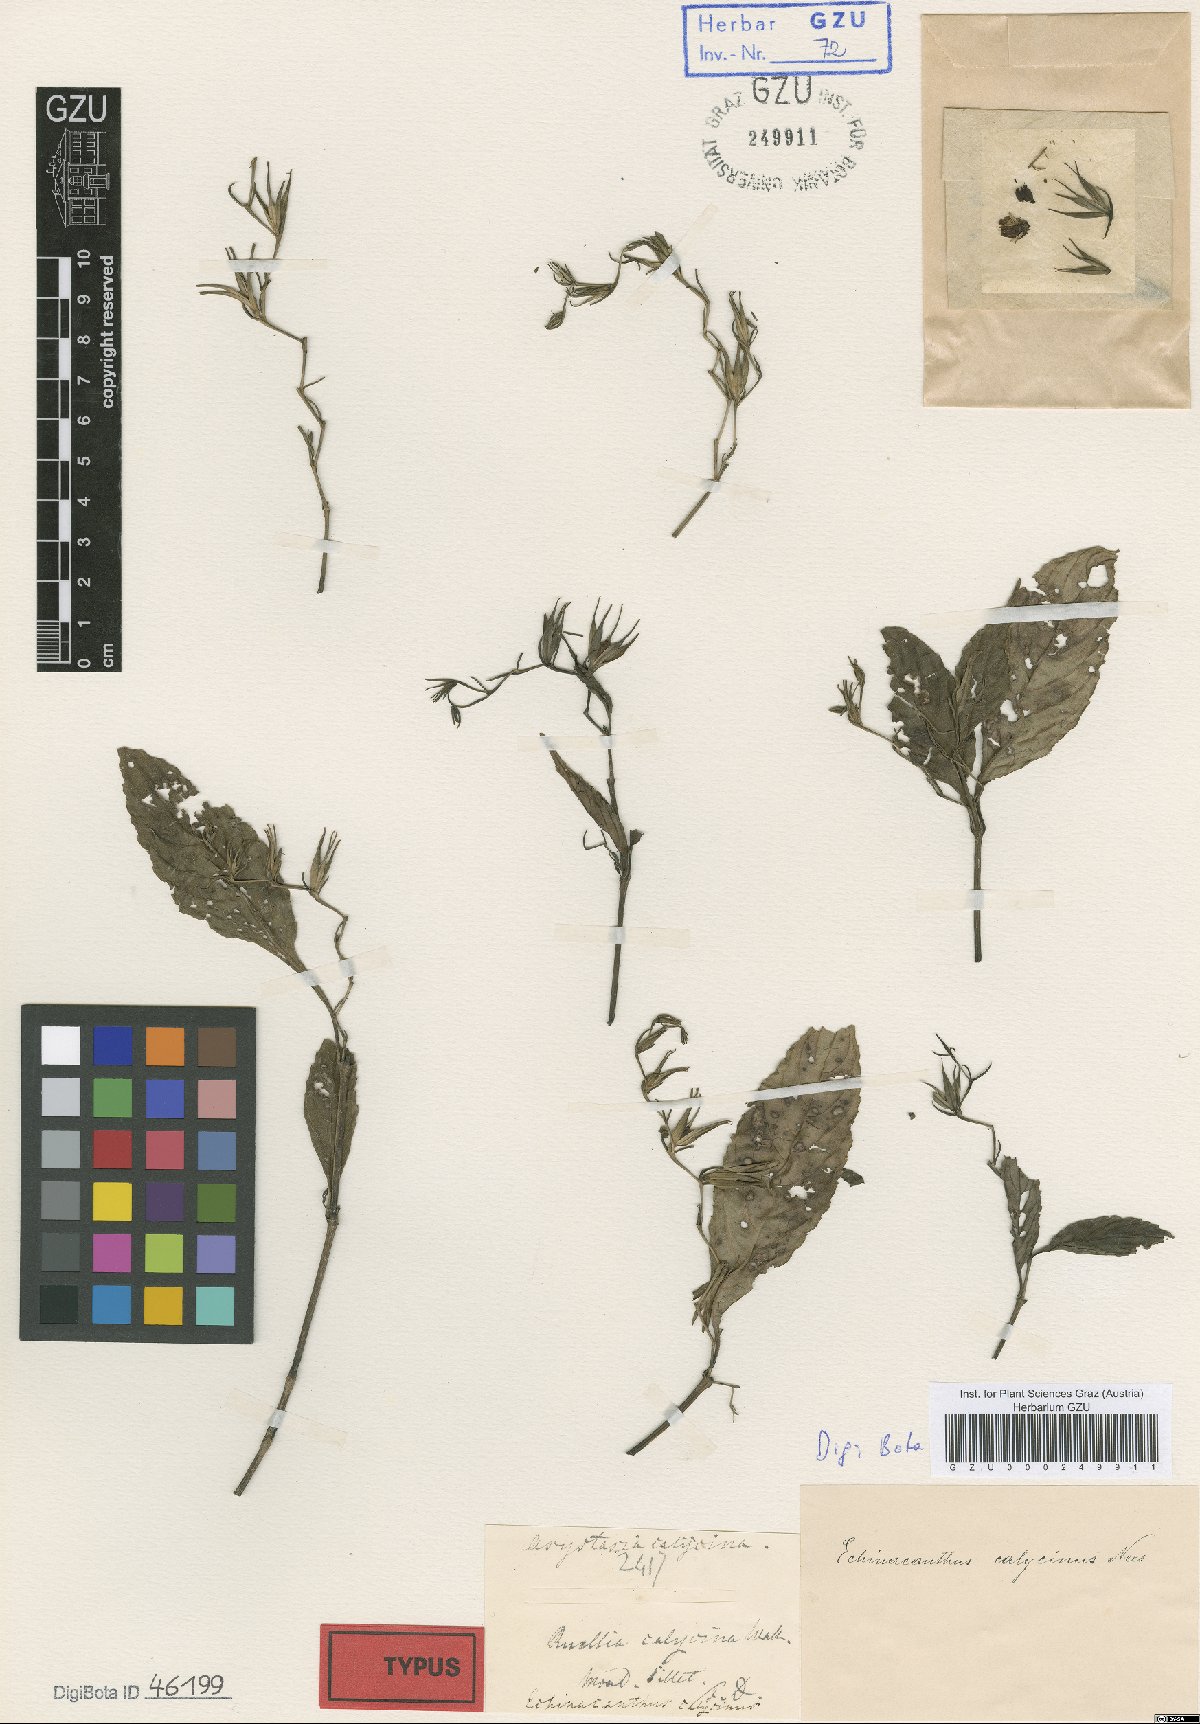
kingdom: Plantae
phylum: Tracheophyta
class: Magnoliopsida
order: Lamiales
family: Acanthaceae
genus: Strobilanthes
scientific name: Strobilanthes helicta
